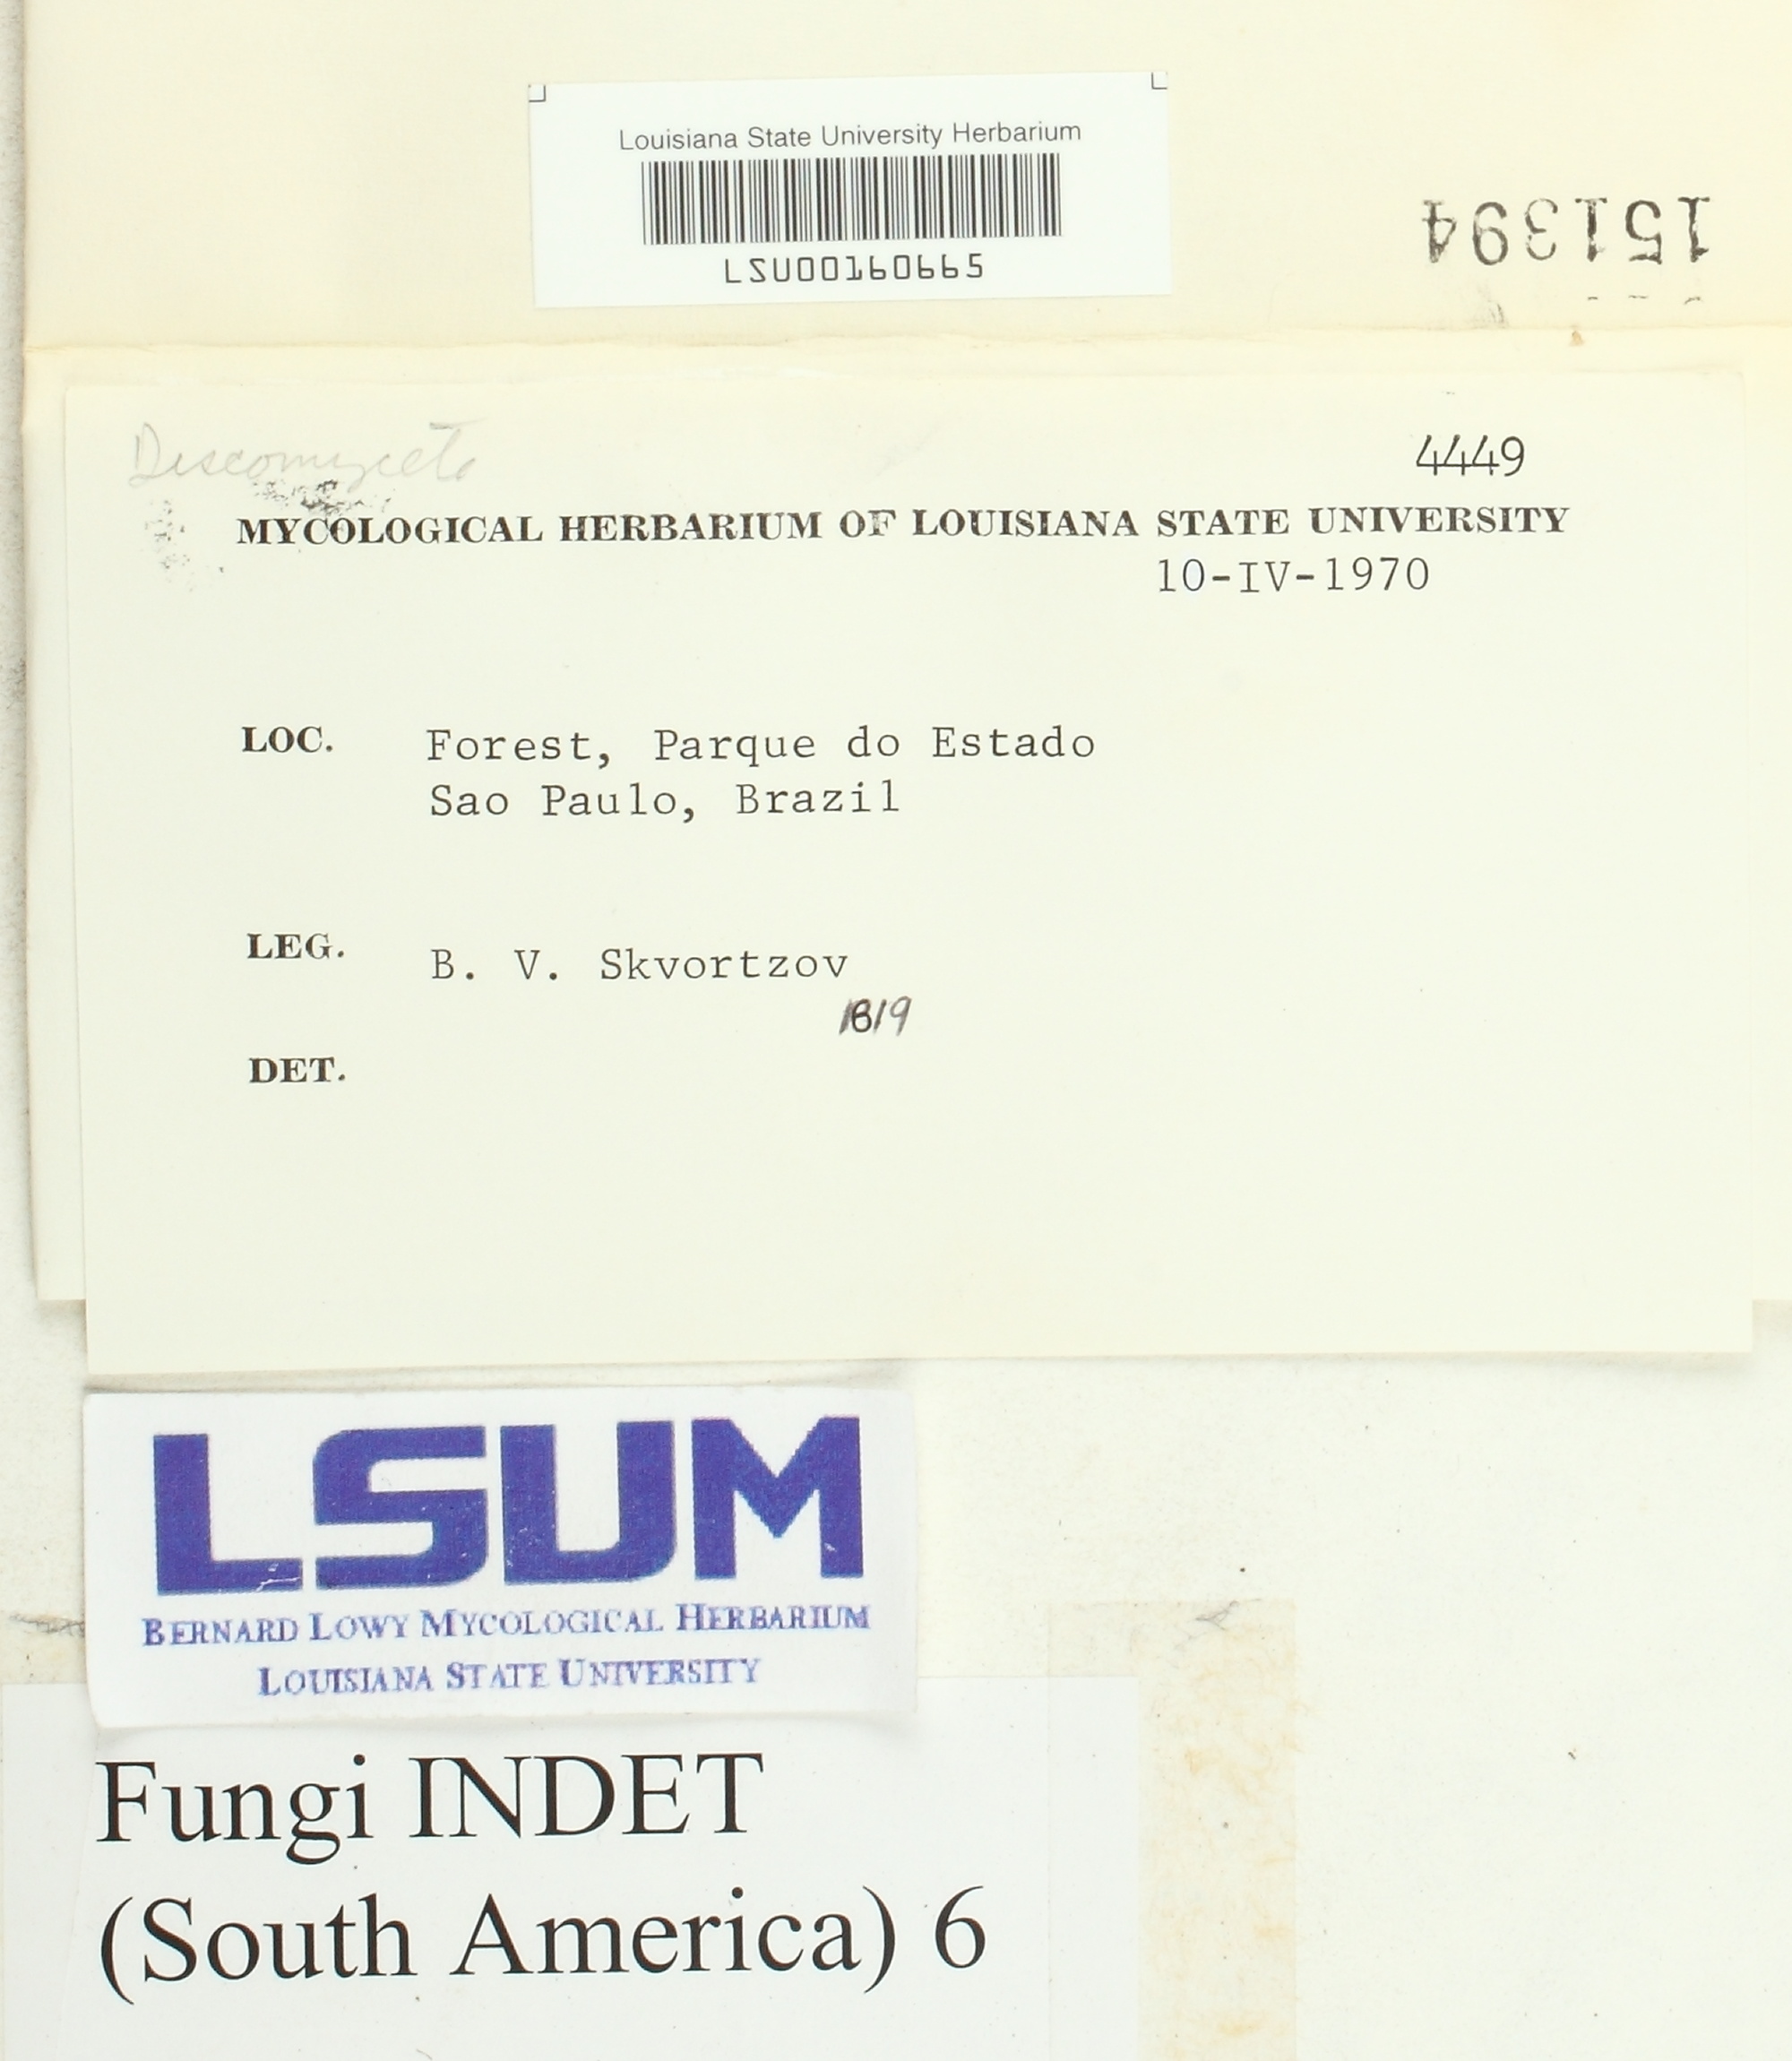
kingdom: Fungi
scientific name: Fungi
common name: Fungi
